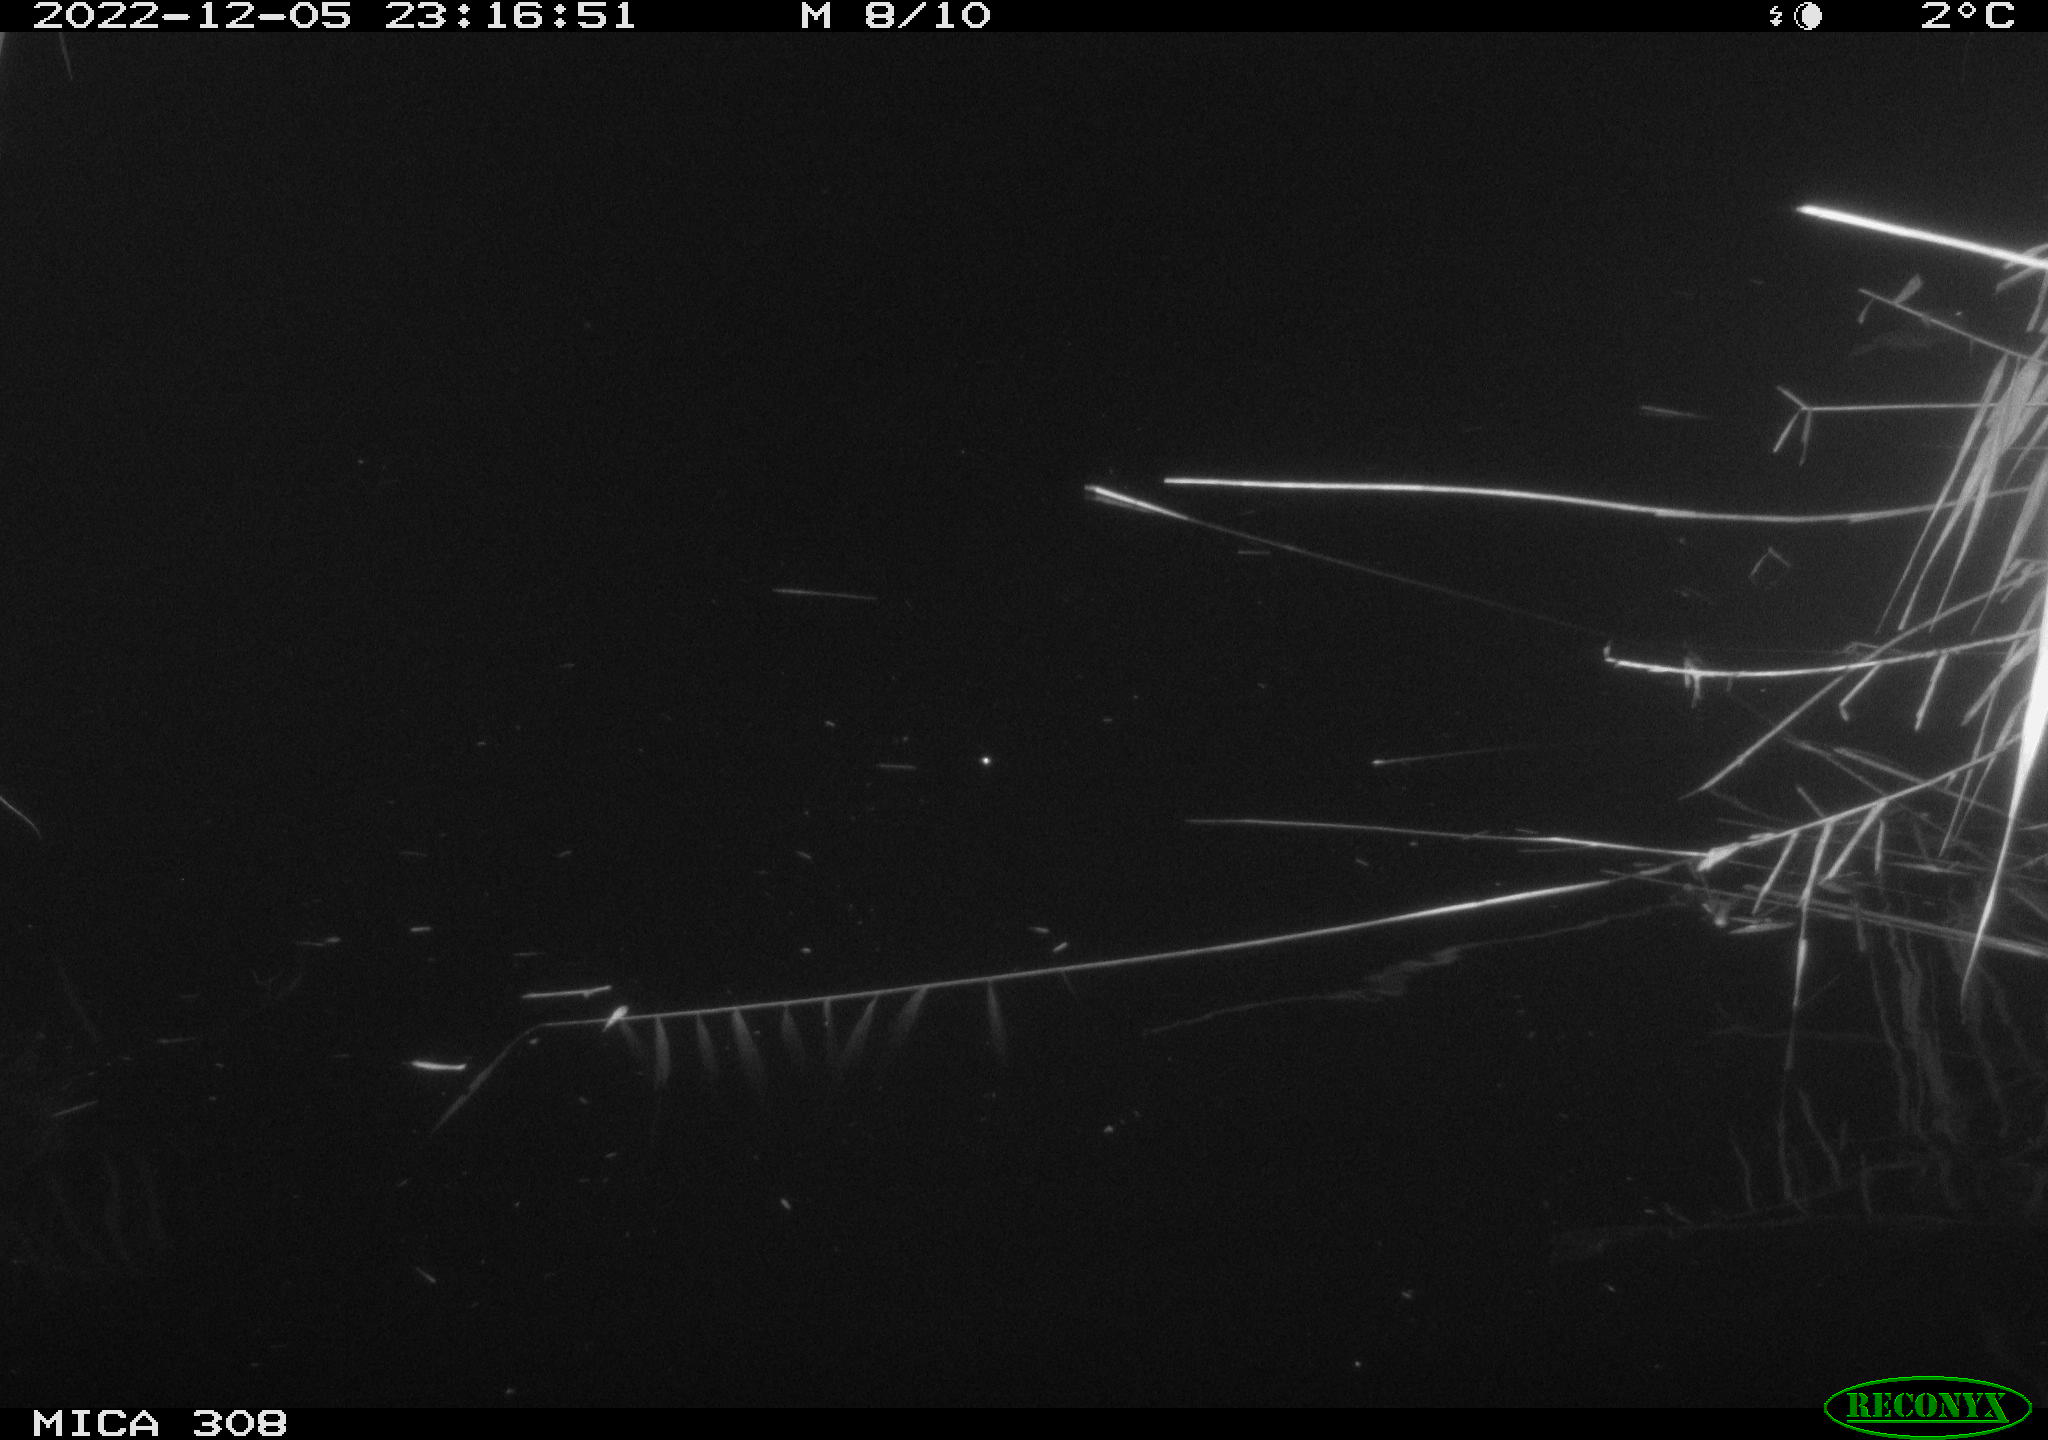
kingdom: Animalia
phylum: Chordata
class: Mammalia
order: Rodentia
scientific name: Rodentia
